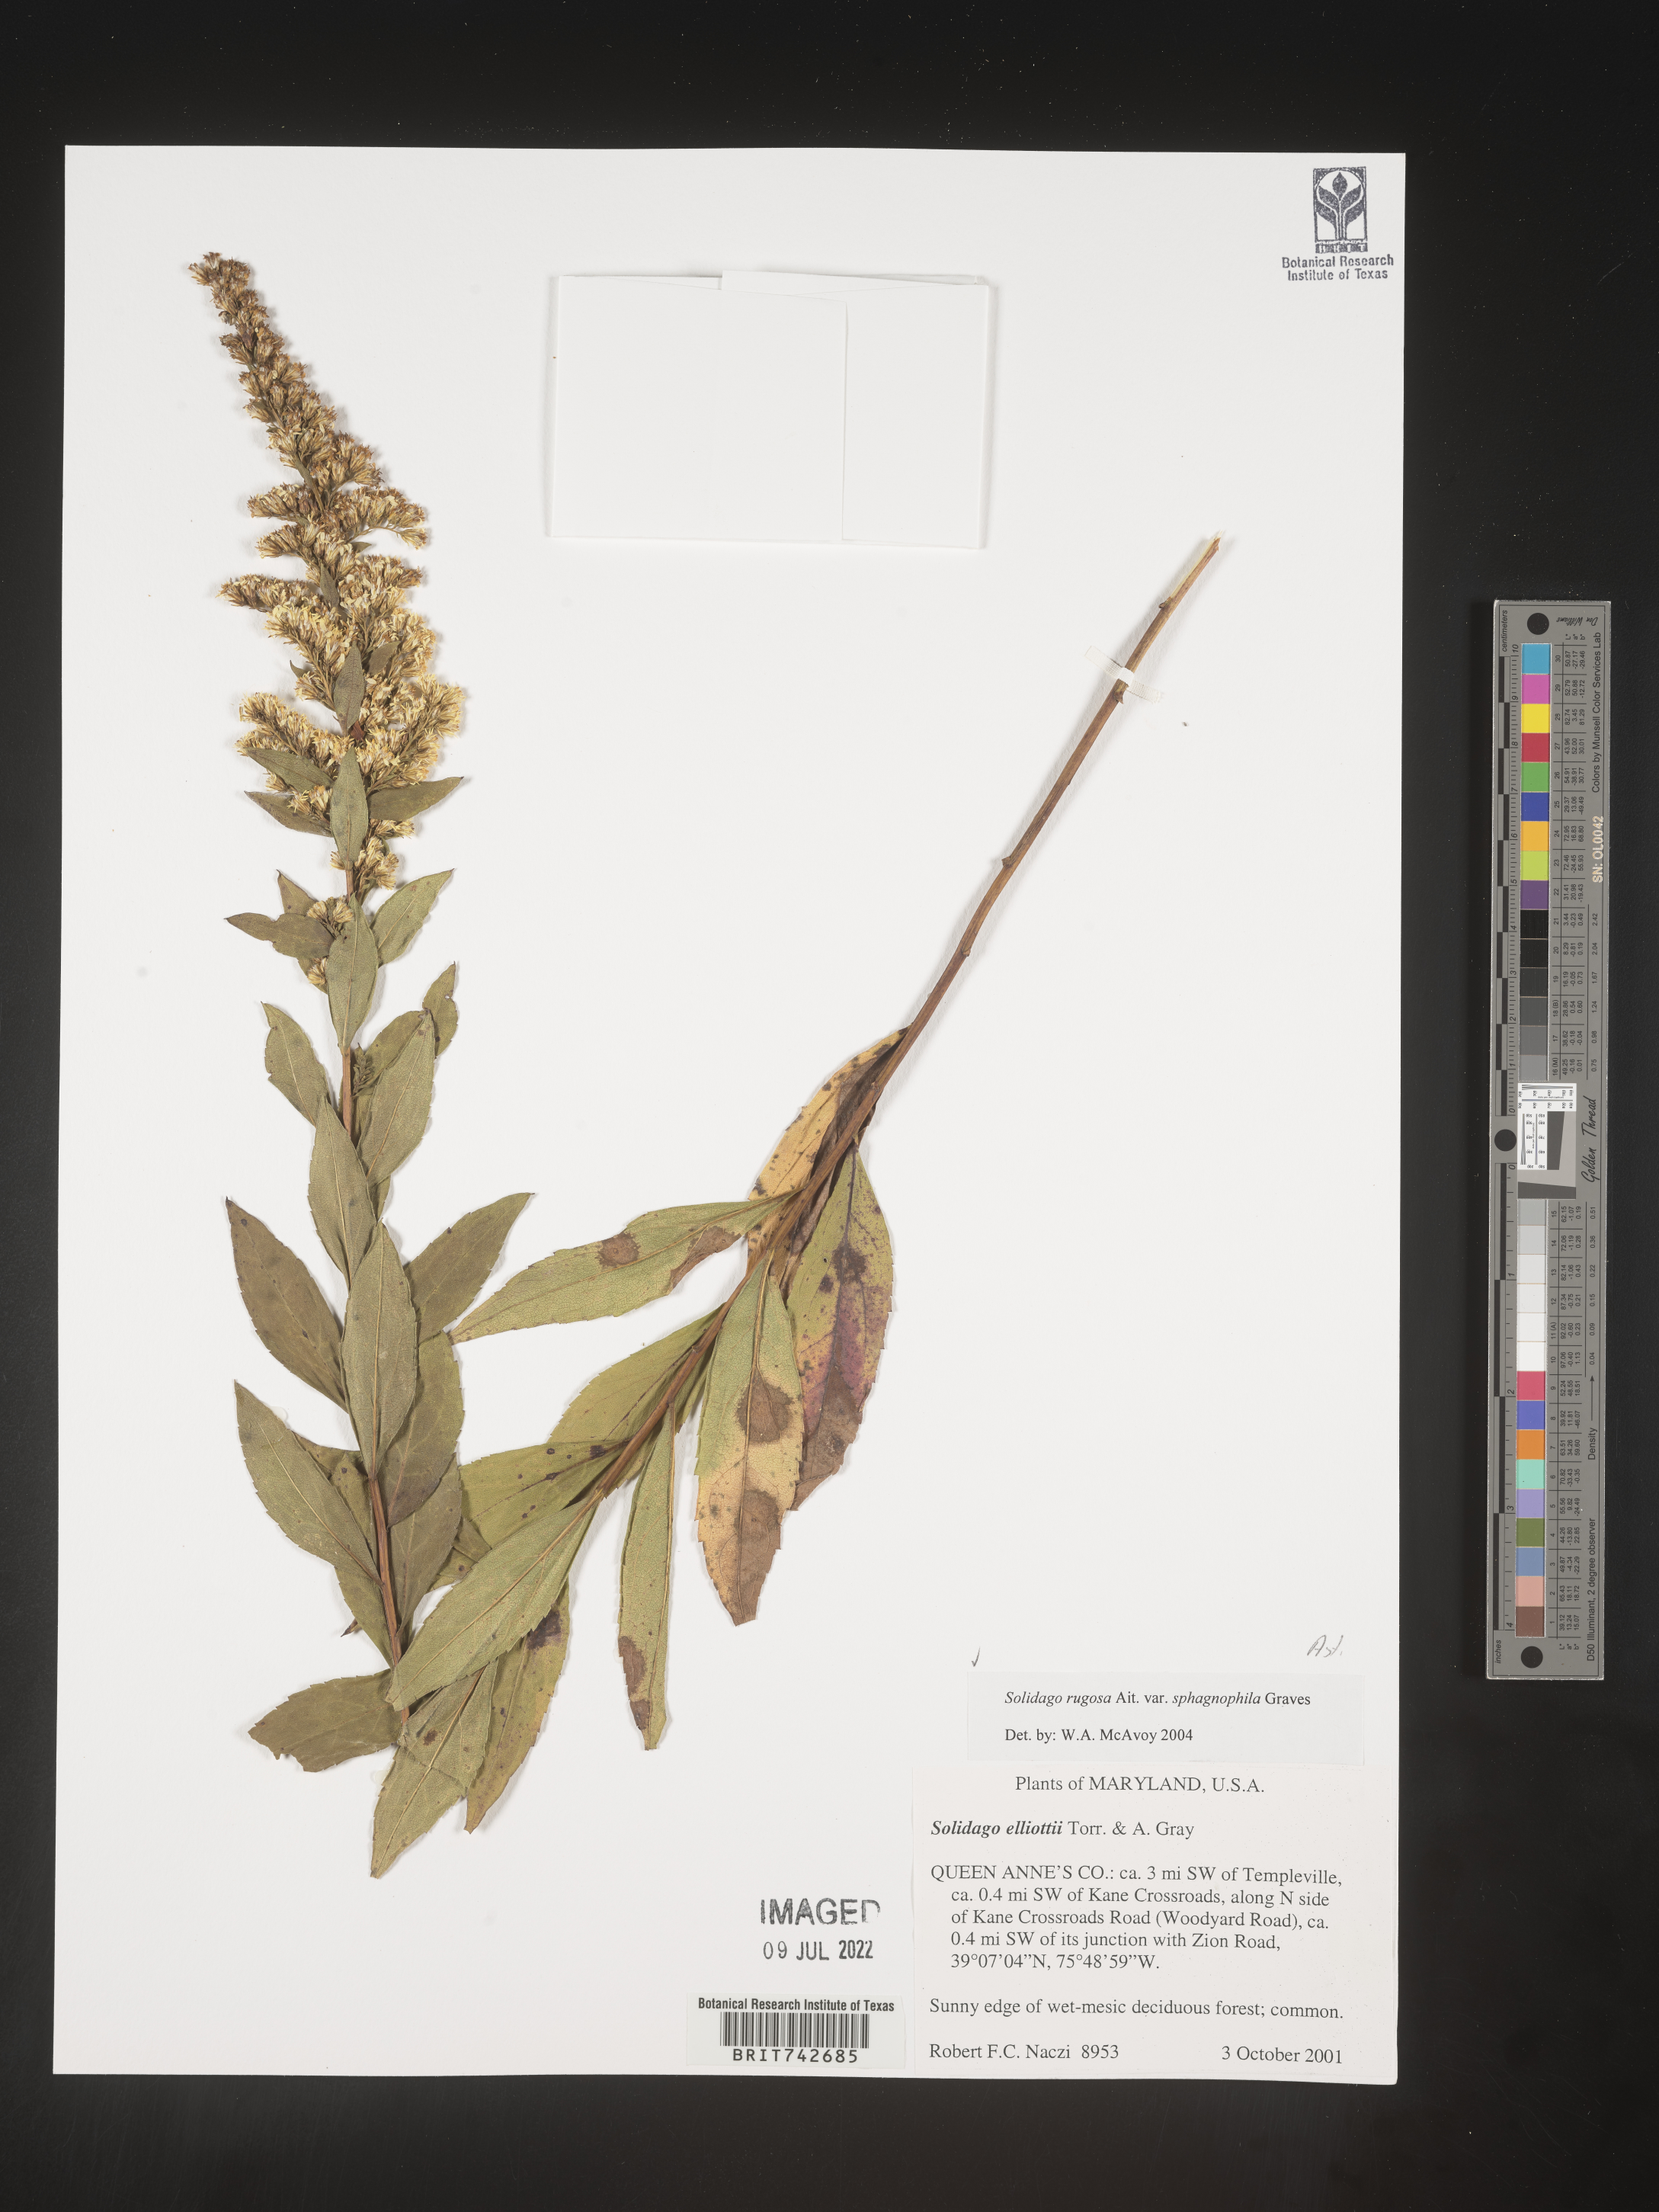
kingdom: Plantae
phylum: Tracheophyta
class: Magnoliopsida
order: Asterales
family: Asteraceae
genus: Solidago
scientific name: Solidago aestivalis
